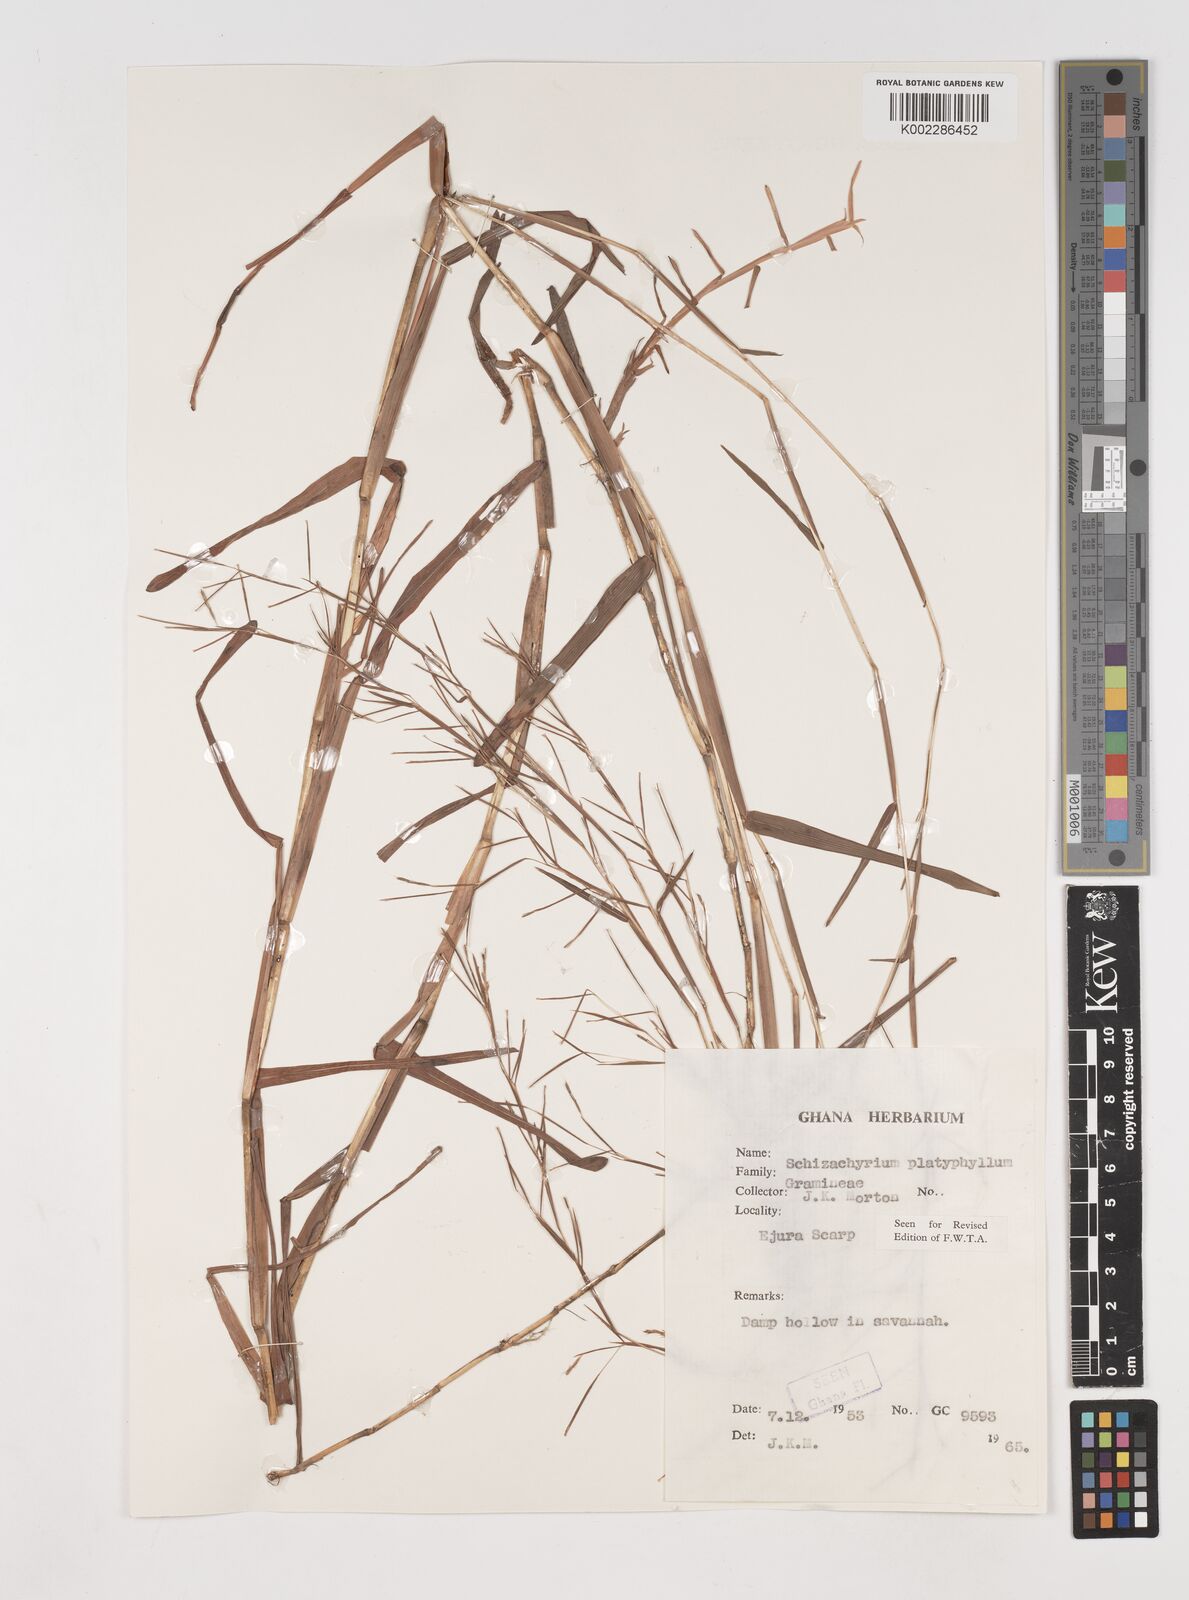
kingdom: Plantae
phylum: Tracheophyta
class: Liliopsida
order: Poales
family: Poaceae
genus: Schizachyrium
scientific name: Schizachyrium platyphyllum
